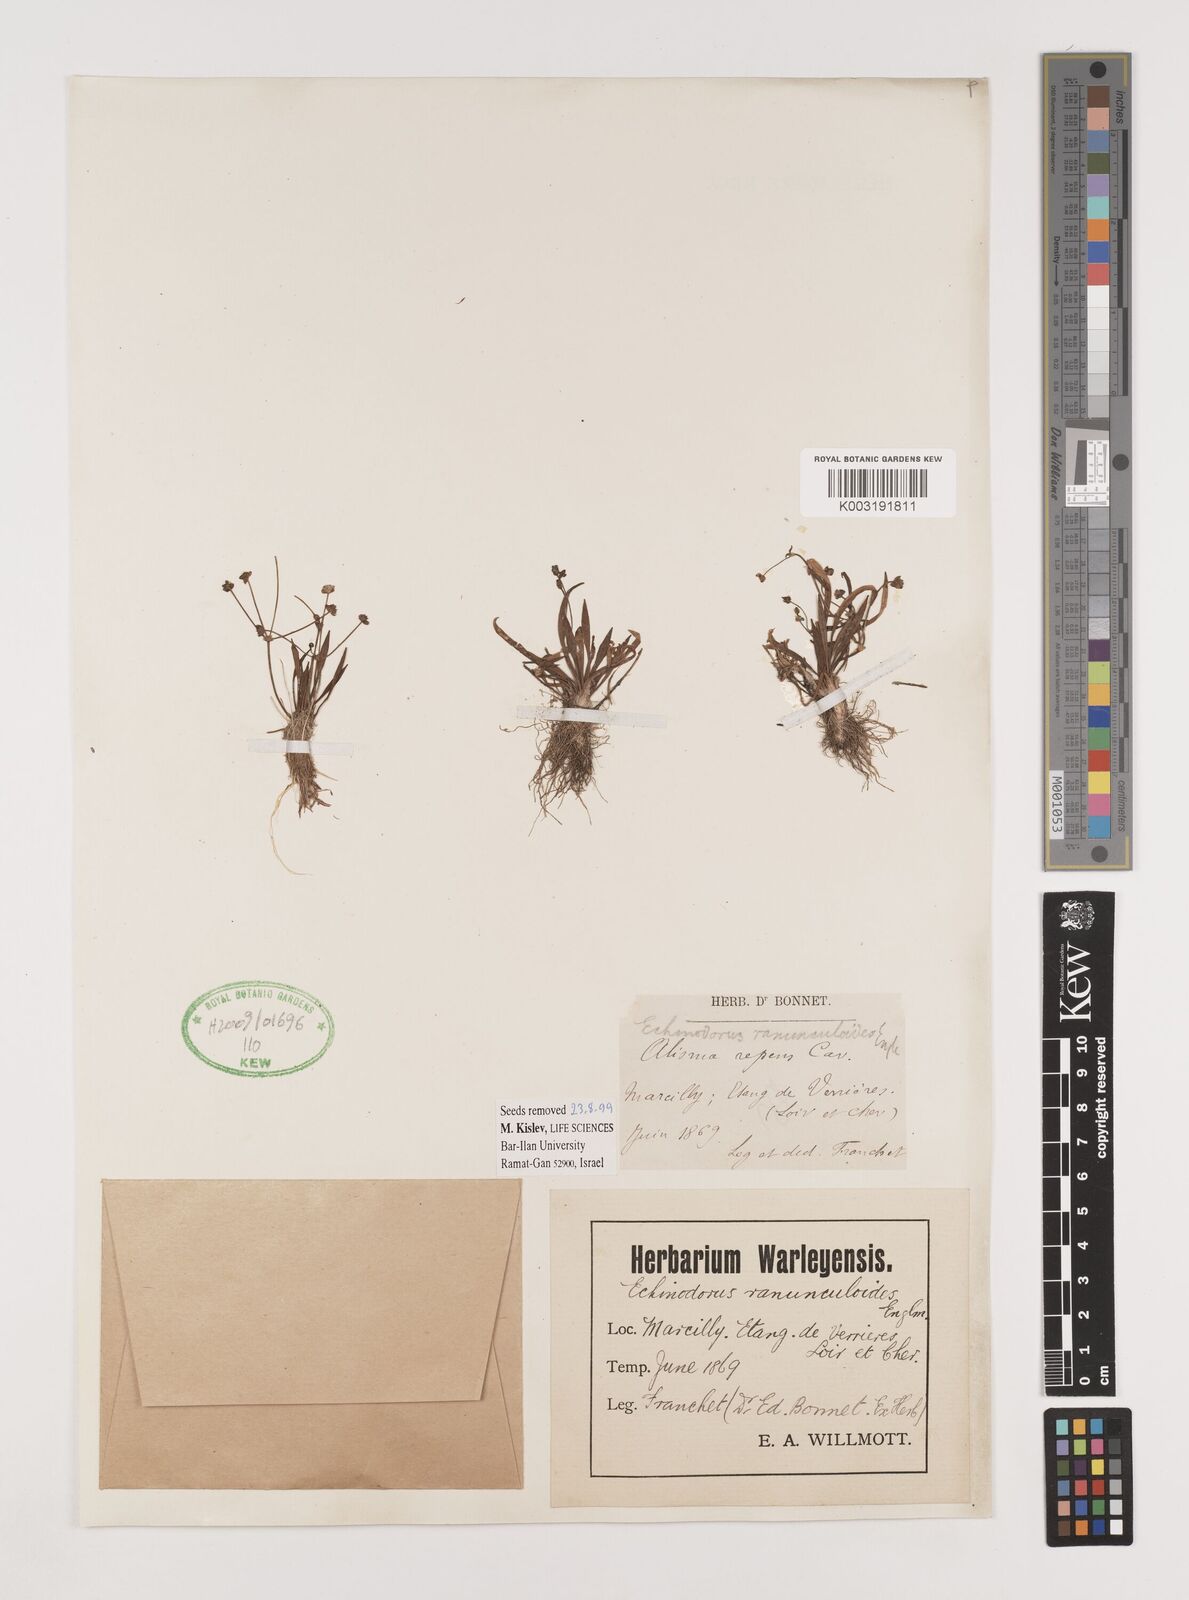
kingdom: Plantae
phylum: Tracheophyta
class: Liliopsida
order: Alismatales
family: Alismataceae
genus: Baldellia
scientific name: Baldellia ranunculoides
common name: Lesser water-plantain
